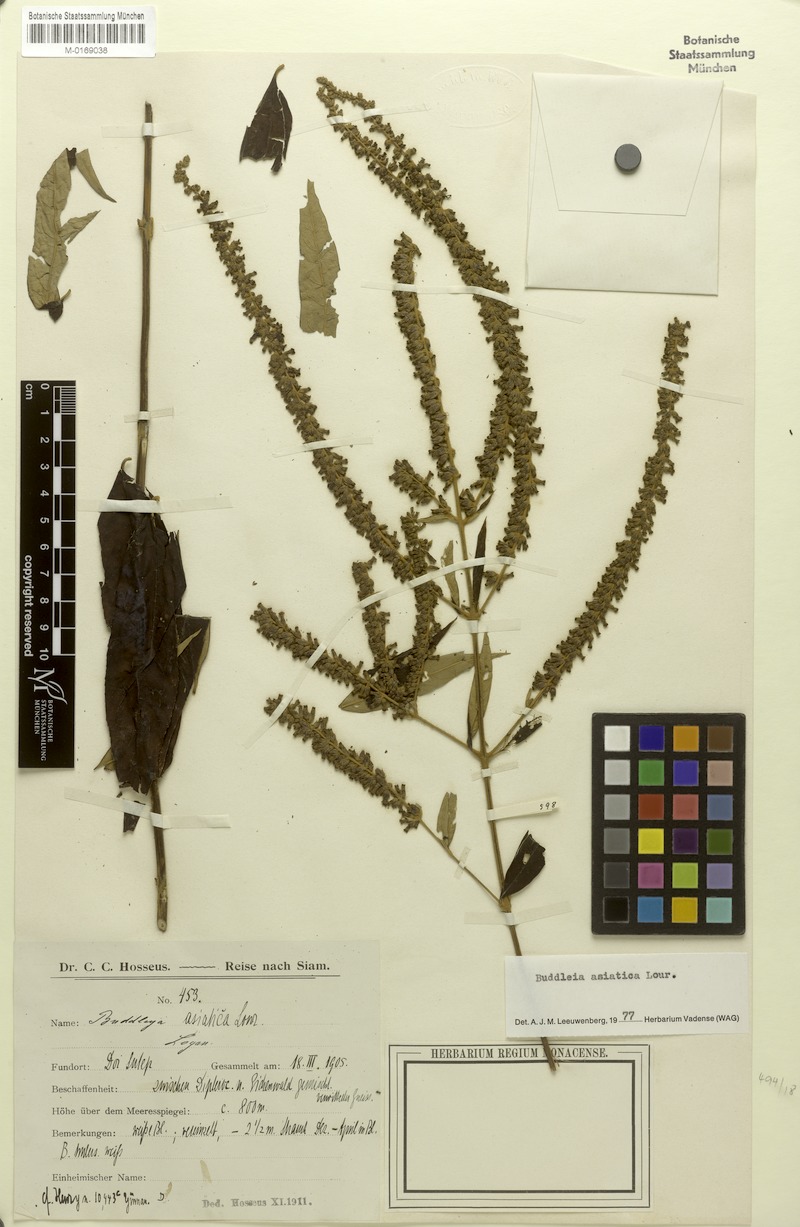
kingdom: Plantae
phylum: Tracheophyta
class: Magnoliopsida
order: Lamiales
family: Scrophulariaceae
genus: Buddleja
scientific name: Buddleja asiatica
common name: Dog tail
